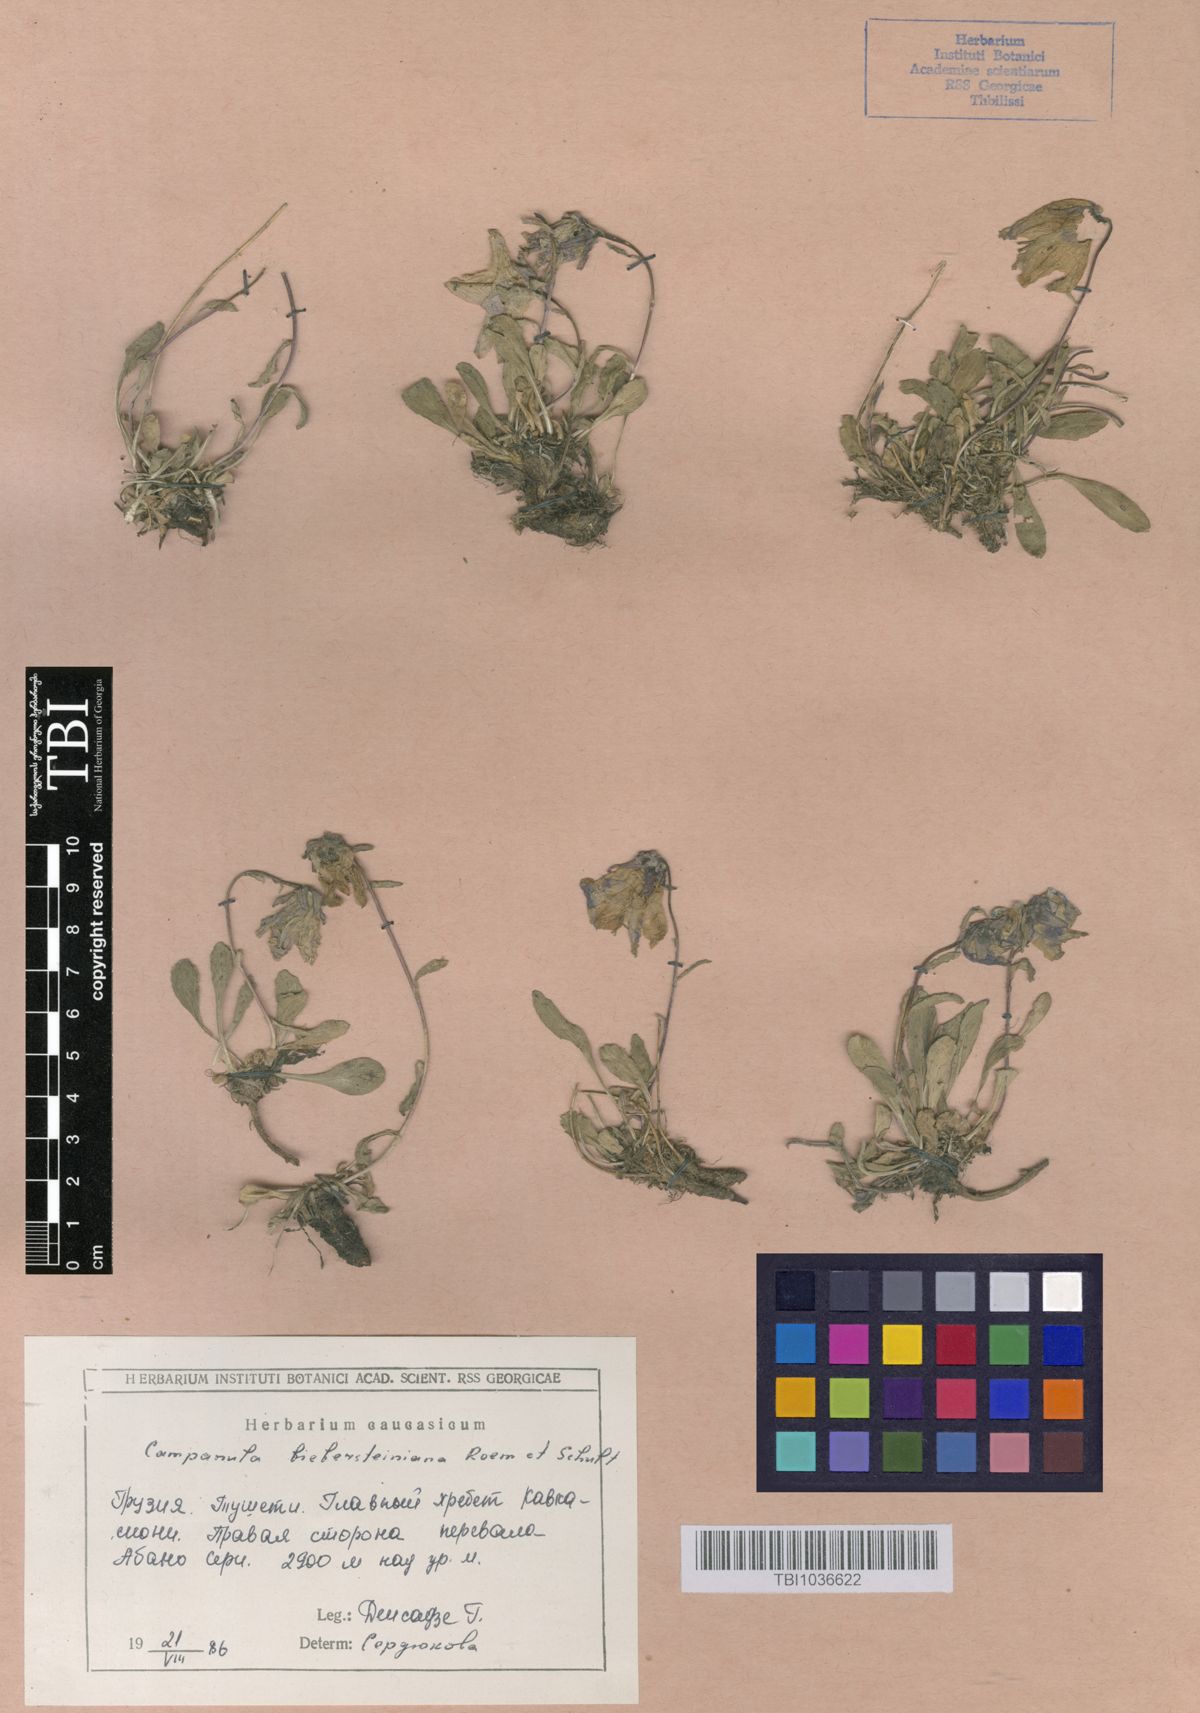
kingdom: Plantae
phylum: Tracheophyta
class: Magnoliopsida
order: Asterales
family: Campanulaceae
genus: Campanula
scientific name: Campanula tridentata
